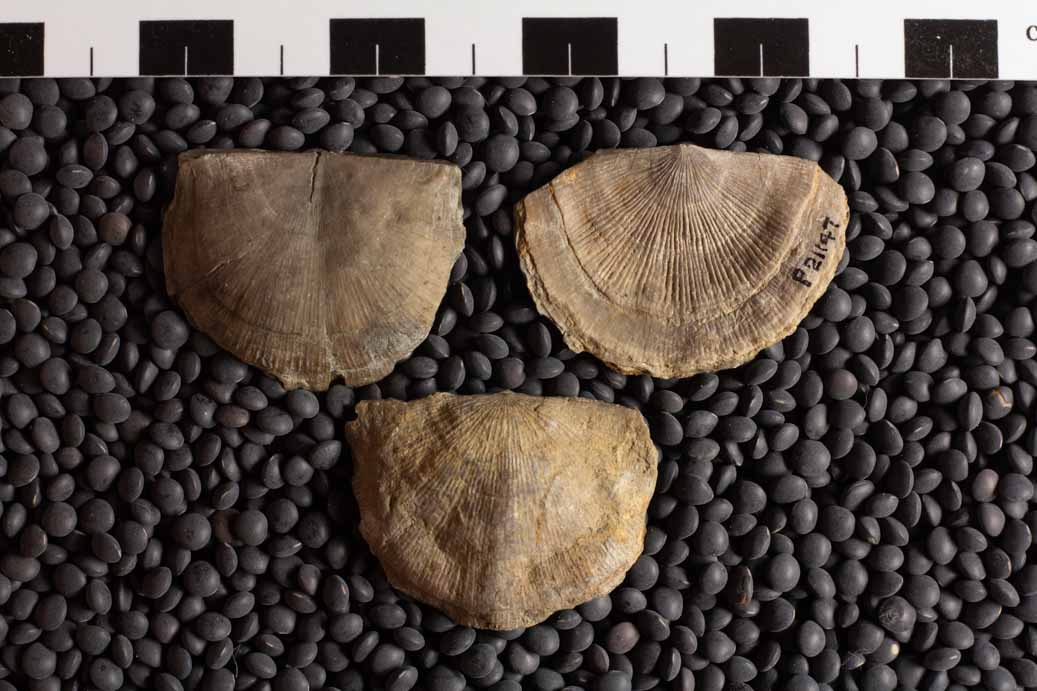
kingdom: Animalia
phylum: Brachiopoda
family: Strophomenidae
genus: Strophomena
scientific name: Strophomena
